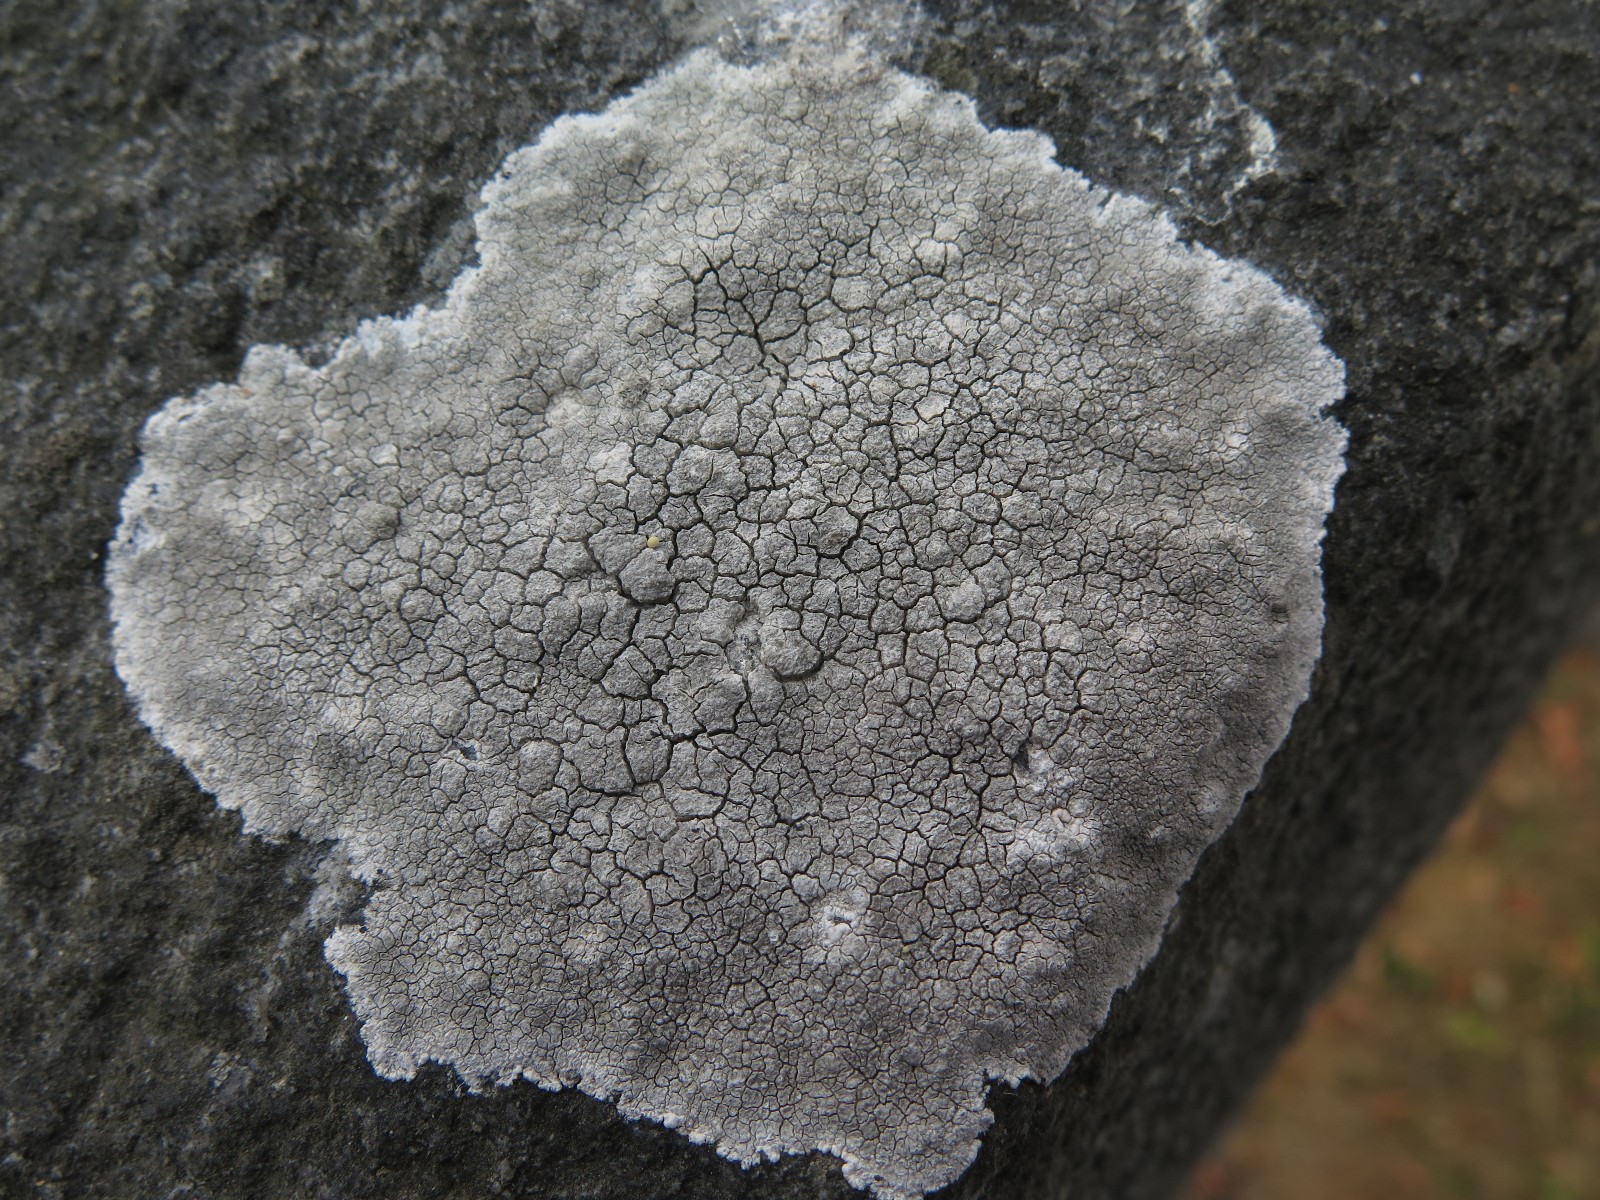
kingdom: Fungi
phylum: Ascomycota
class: Lecanoromycetes
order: Lecanorales
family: Lecanoraceae
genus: Glaucomaria
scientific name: Glaucomaria rupicola
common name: stengærde-kantskivelav
